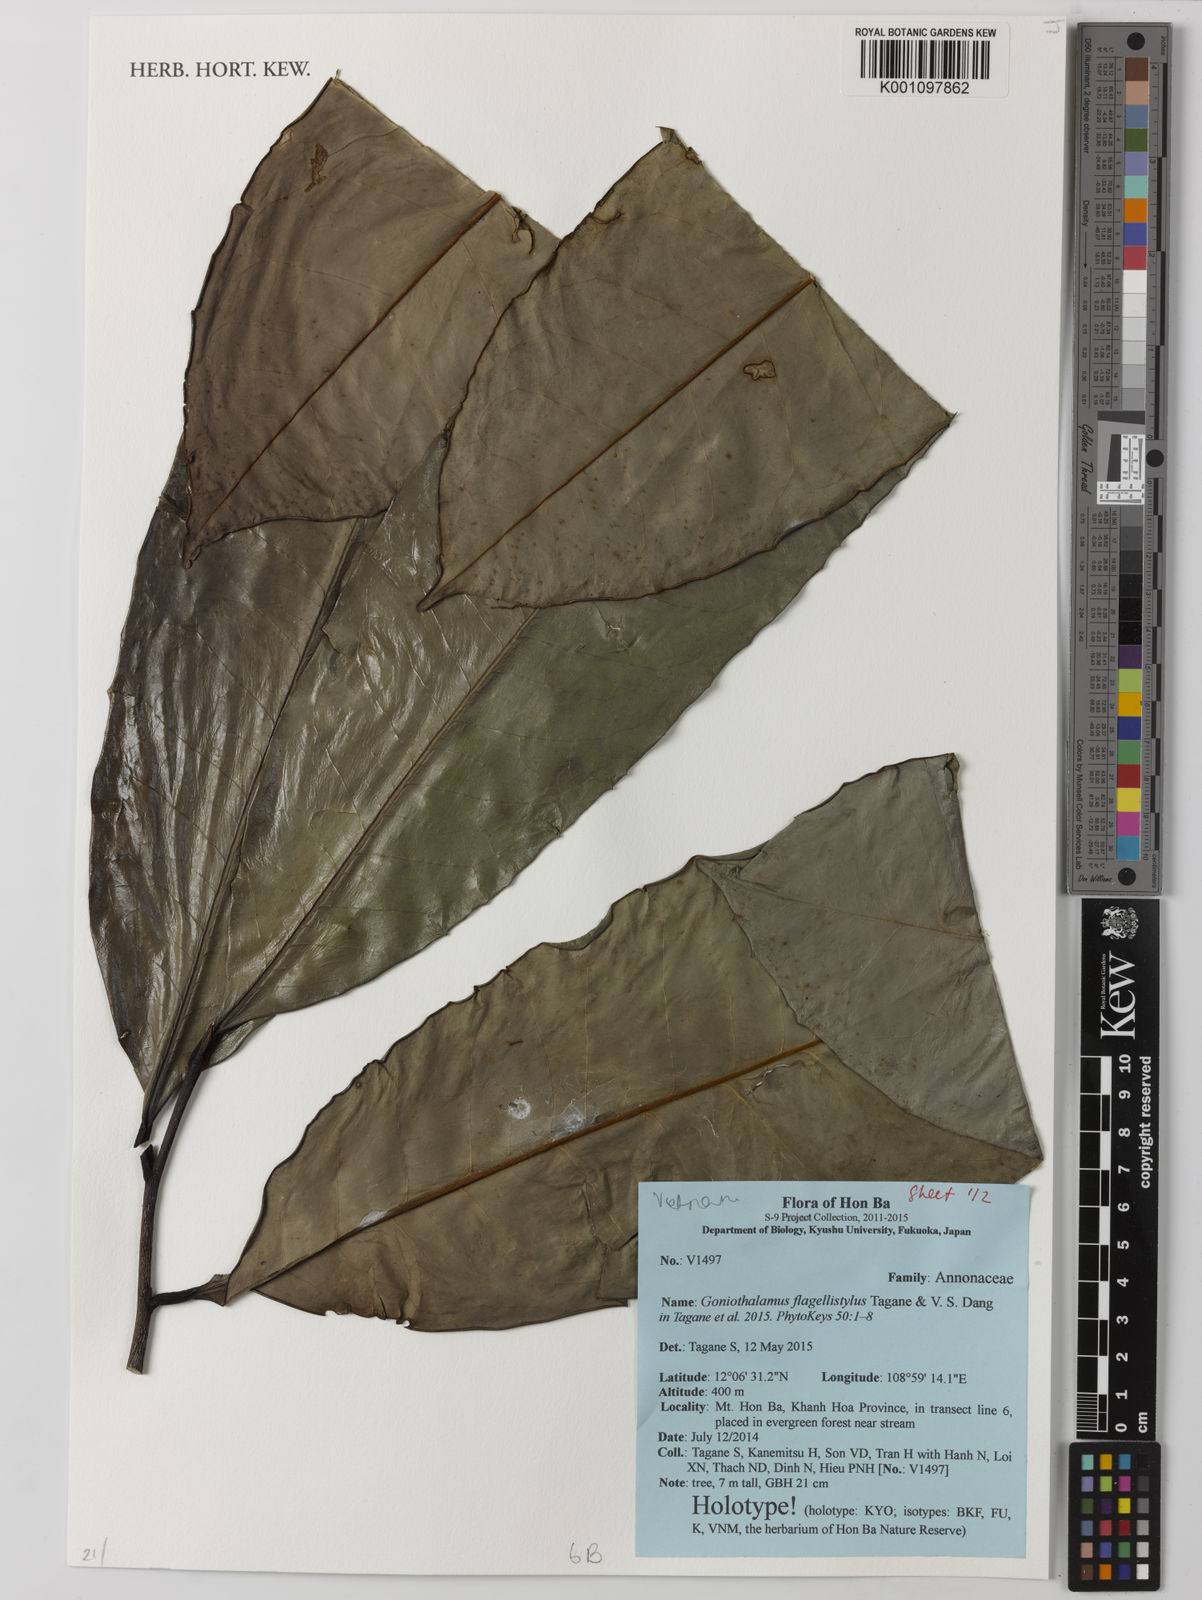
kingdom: Plantae
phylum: Tracheophyta
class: Magnoliopsida
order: Magnoliales
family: Annonaceae
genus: Goniothalamus
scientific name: Goniothalamus flagellistylus
